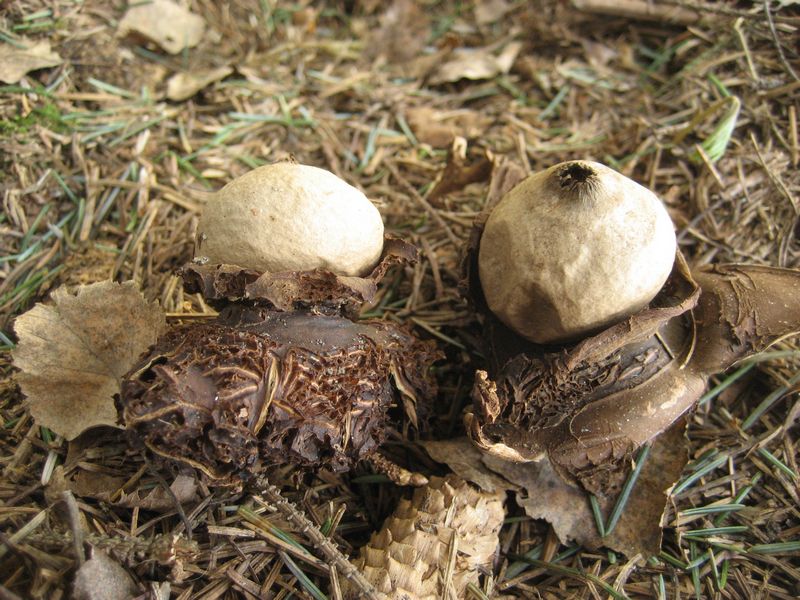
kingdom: Fungi
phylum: Basidiomycota
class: Agaricomycetes
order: Geastrales
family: Geastraceae
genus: Geastrum
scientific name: Geastrum michelianum
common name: kødet stjernebold
